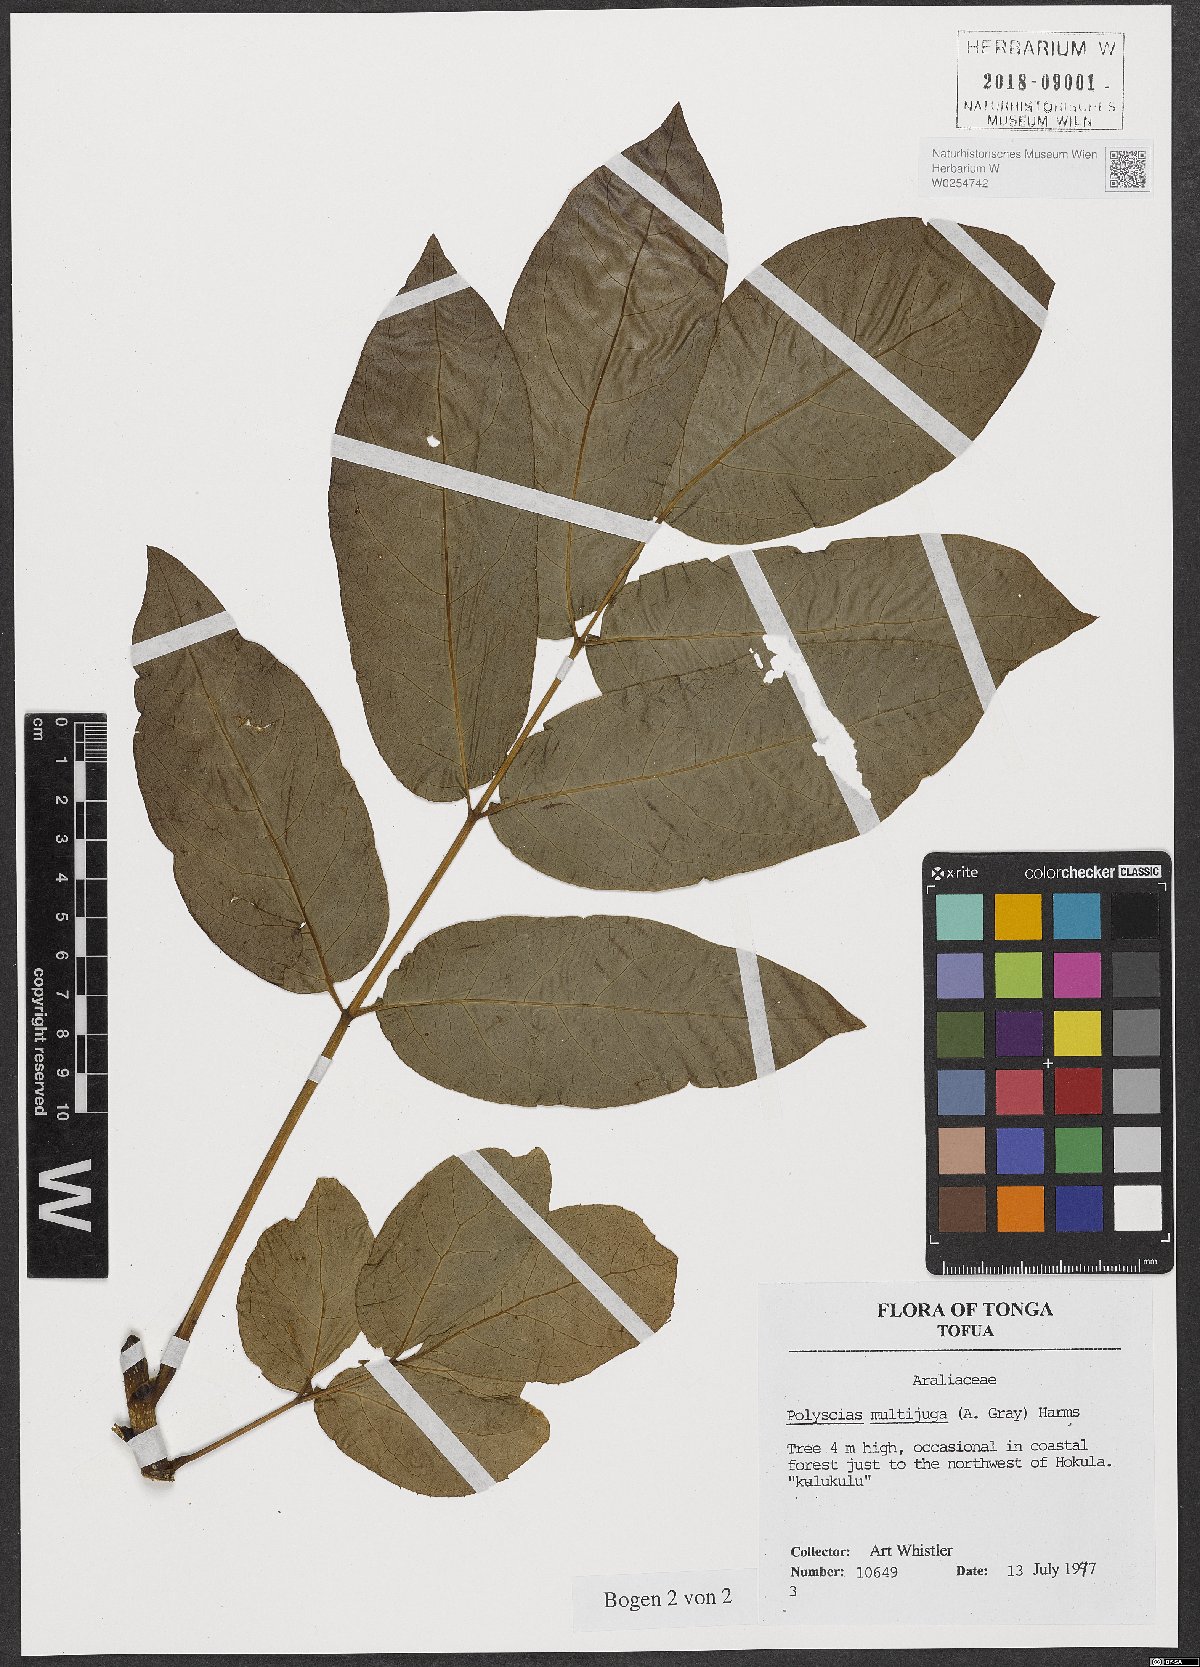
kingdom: Plantae
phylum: Tracheophyta
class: Magnoliopsida
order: Apiales
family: Araliaceae
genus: Polyscias
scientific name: Polyscias multijuga
